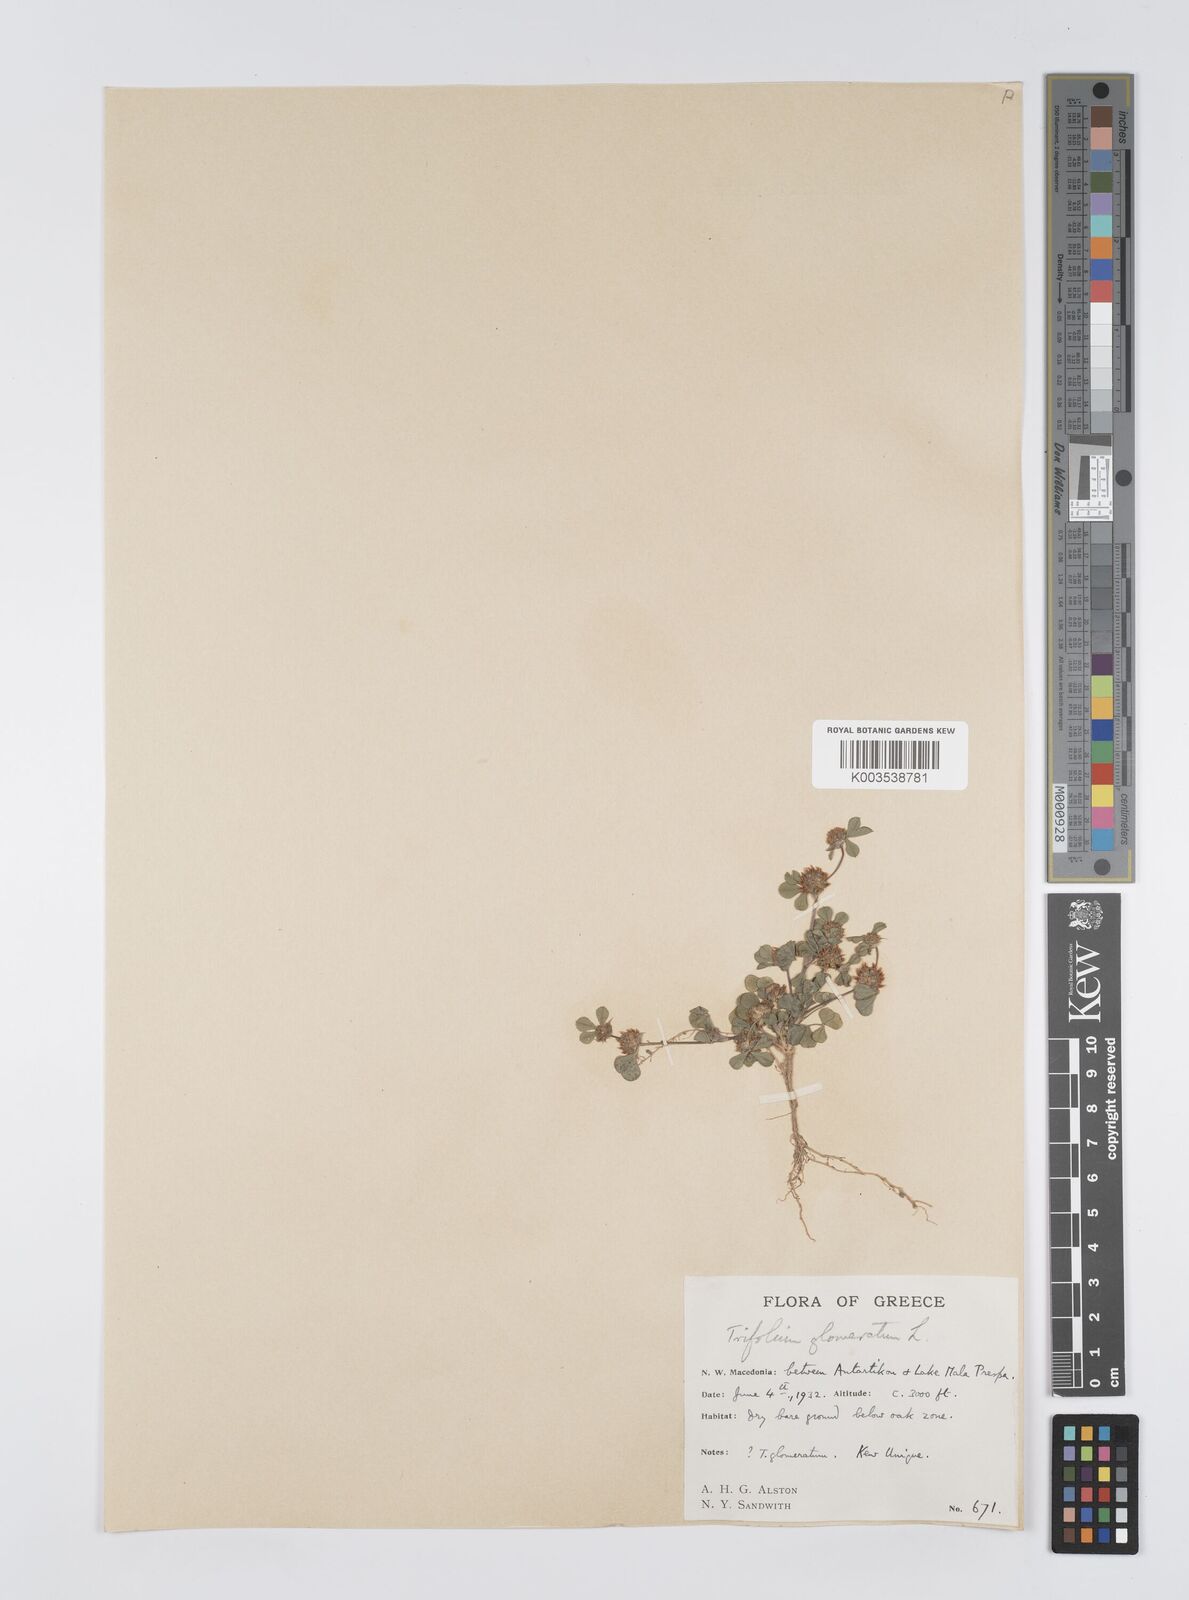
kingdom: Plantae
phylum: Tracheophyta
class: Magnoliopsida
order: Fabales
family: Fabaceae
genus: Trifolium
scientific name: Trifolium glomeratum
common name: Clustered clover
